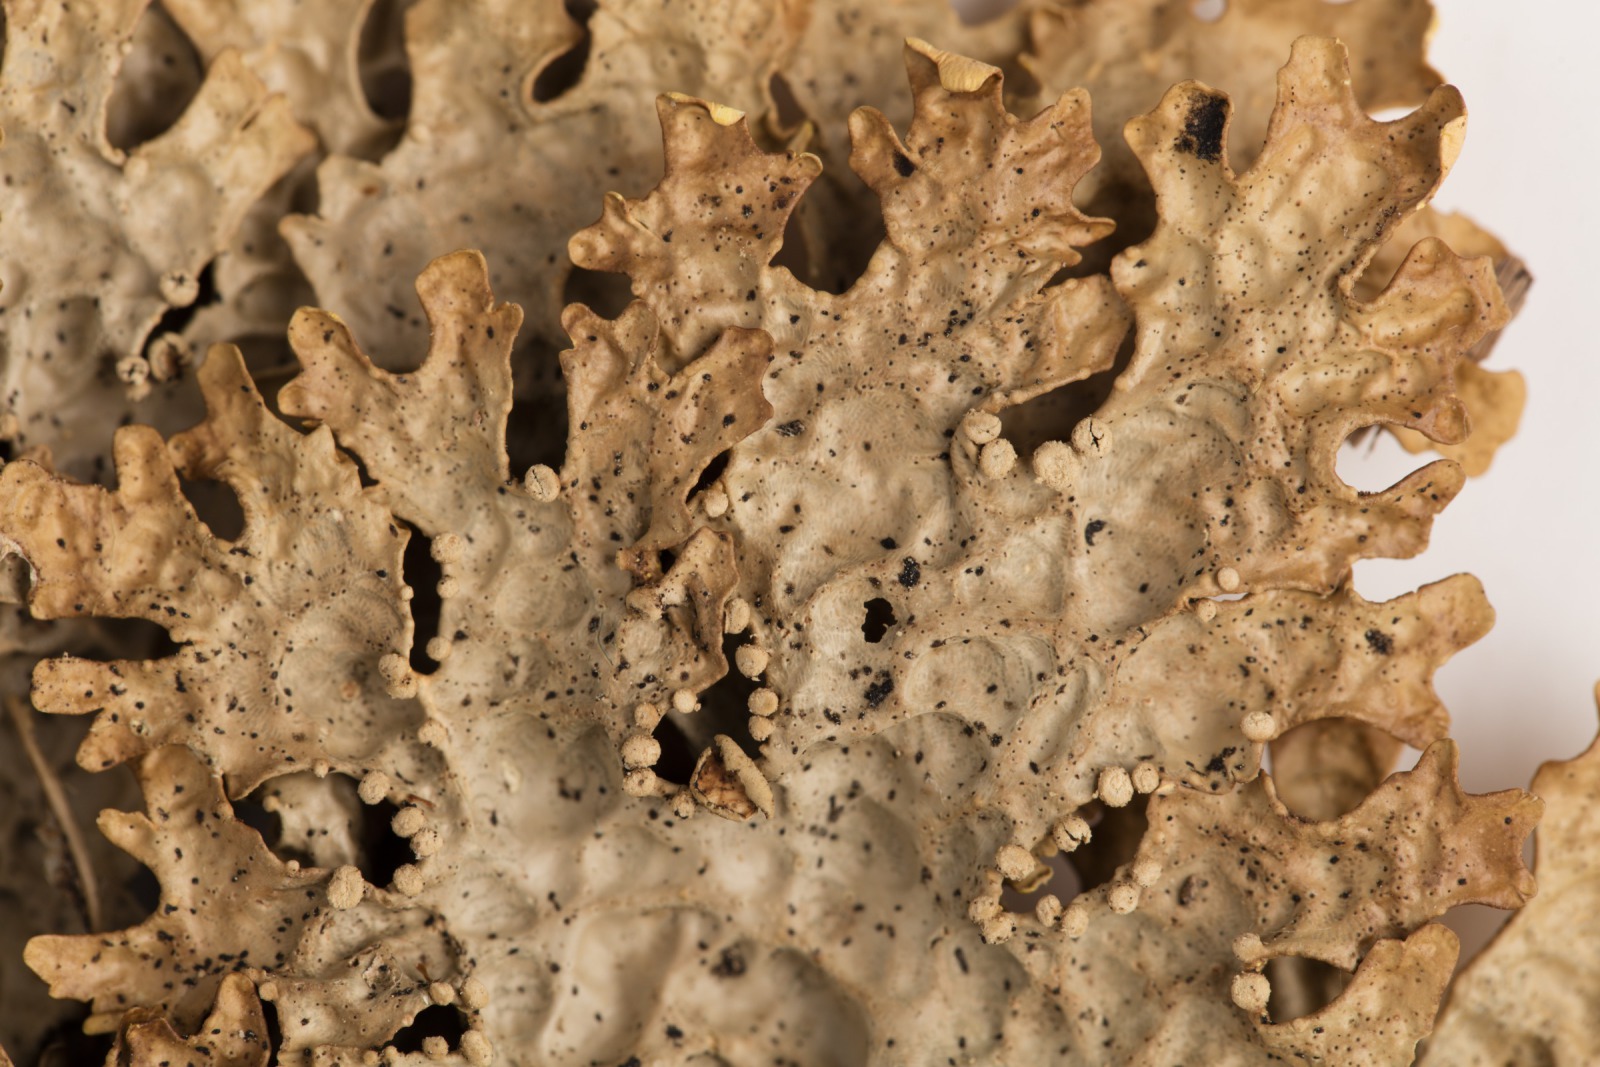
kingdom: Fungi
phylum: Ascomycota
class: Lecanoromycetes
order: Peltigerales
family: Lobariaceae
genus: Pseudocyphellaria
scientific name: Pseudocyphellaria carpoloma
